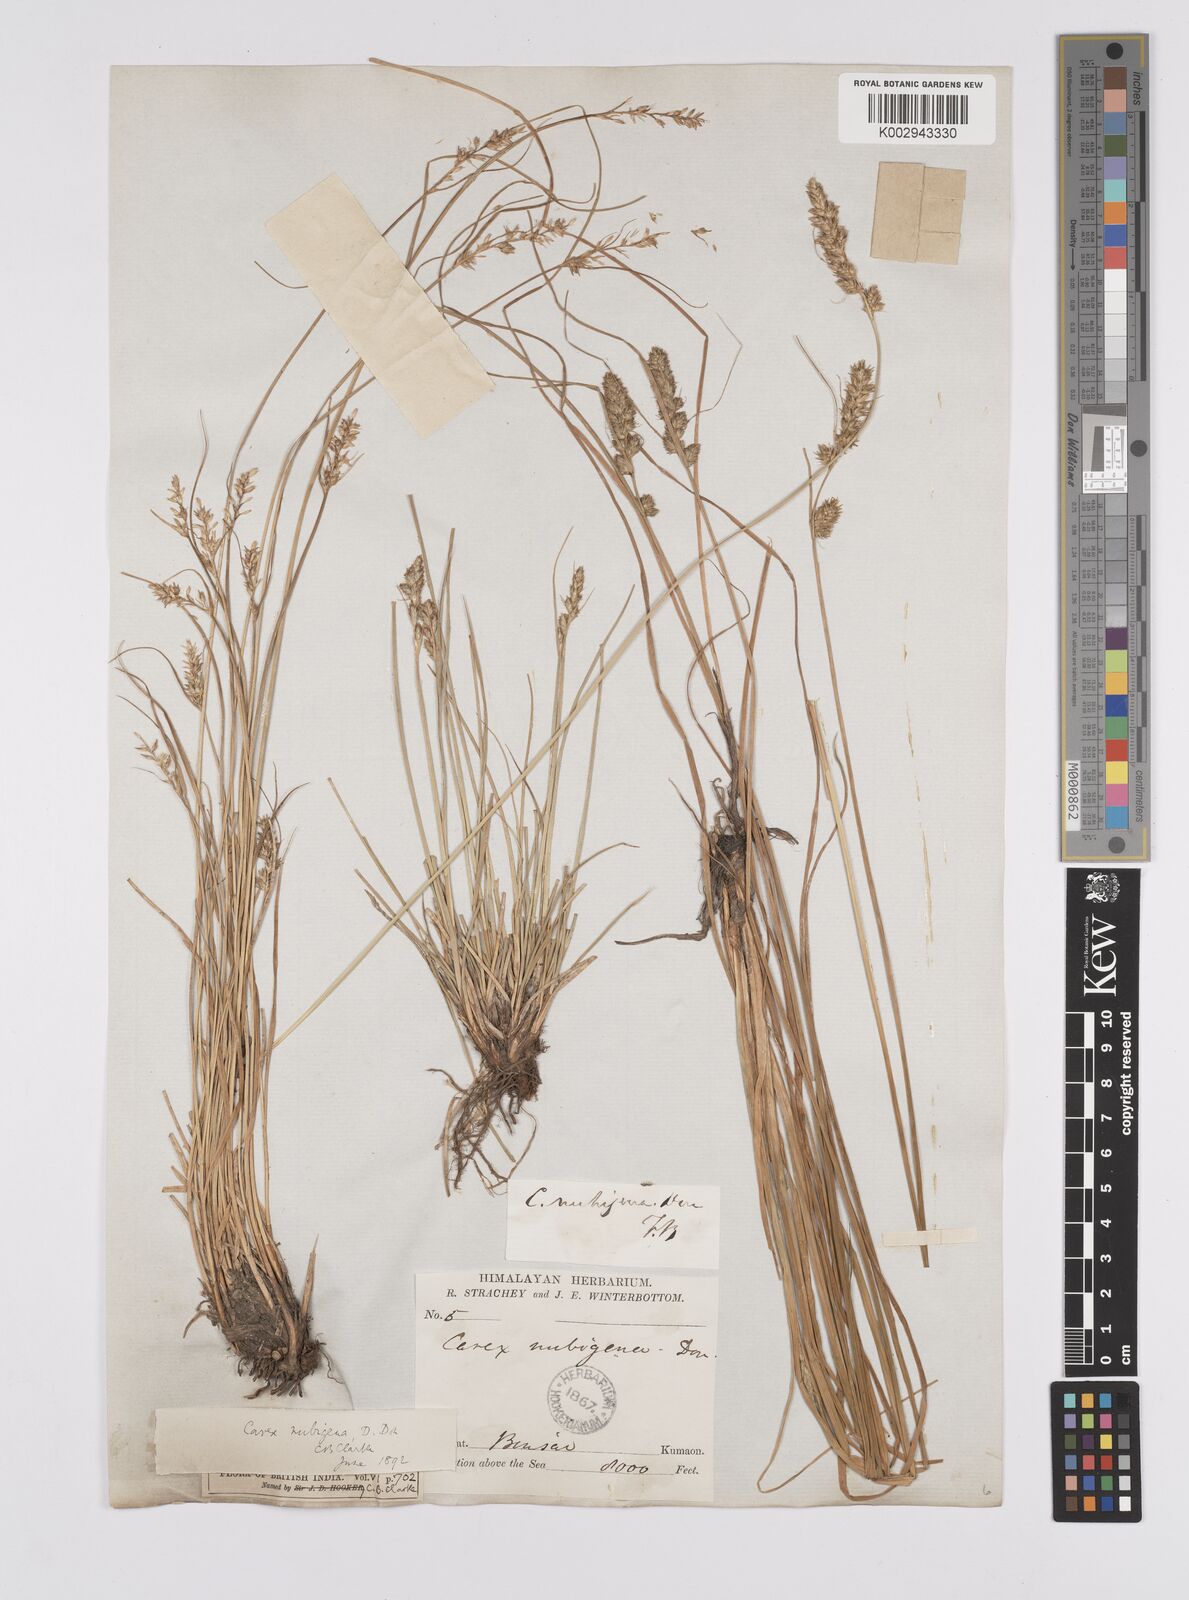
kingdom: Plantae
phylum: Tracheophyta
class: Liliopsida
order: Poales
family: Cyperaceae
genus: Carex
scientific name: Carex nubigena
